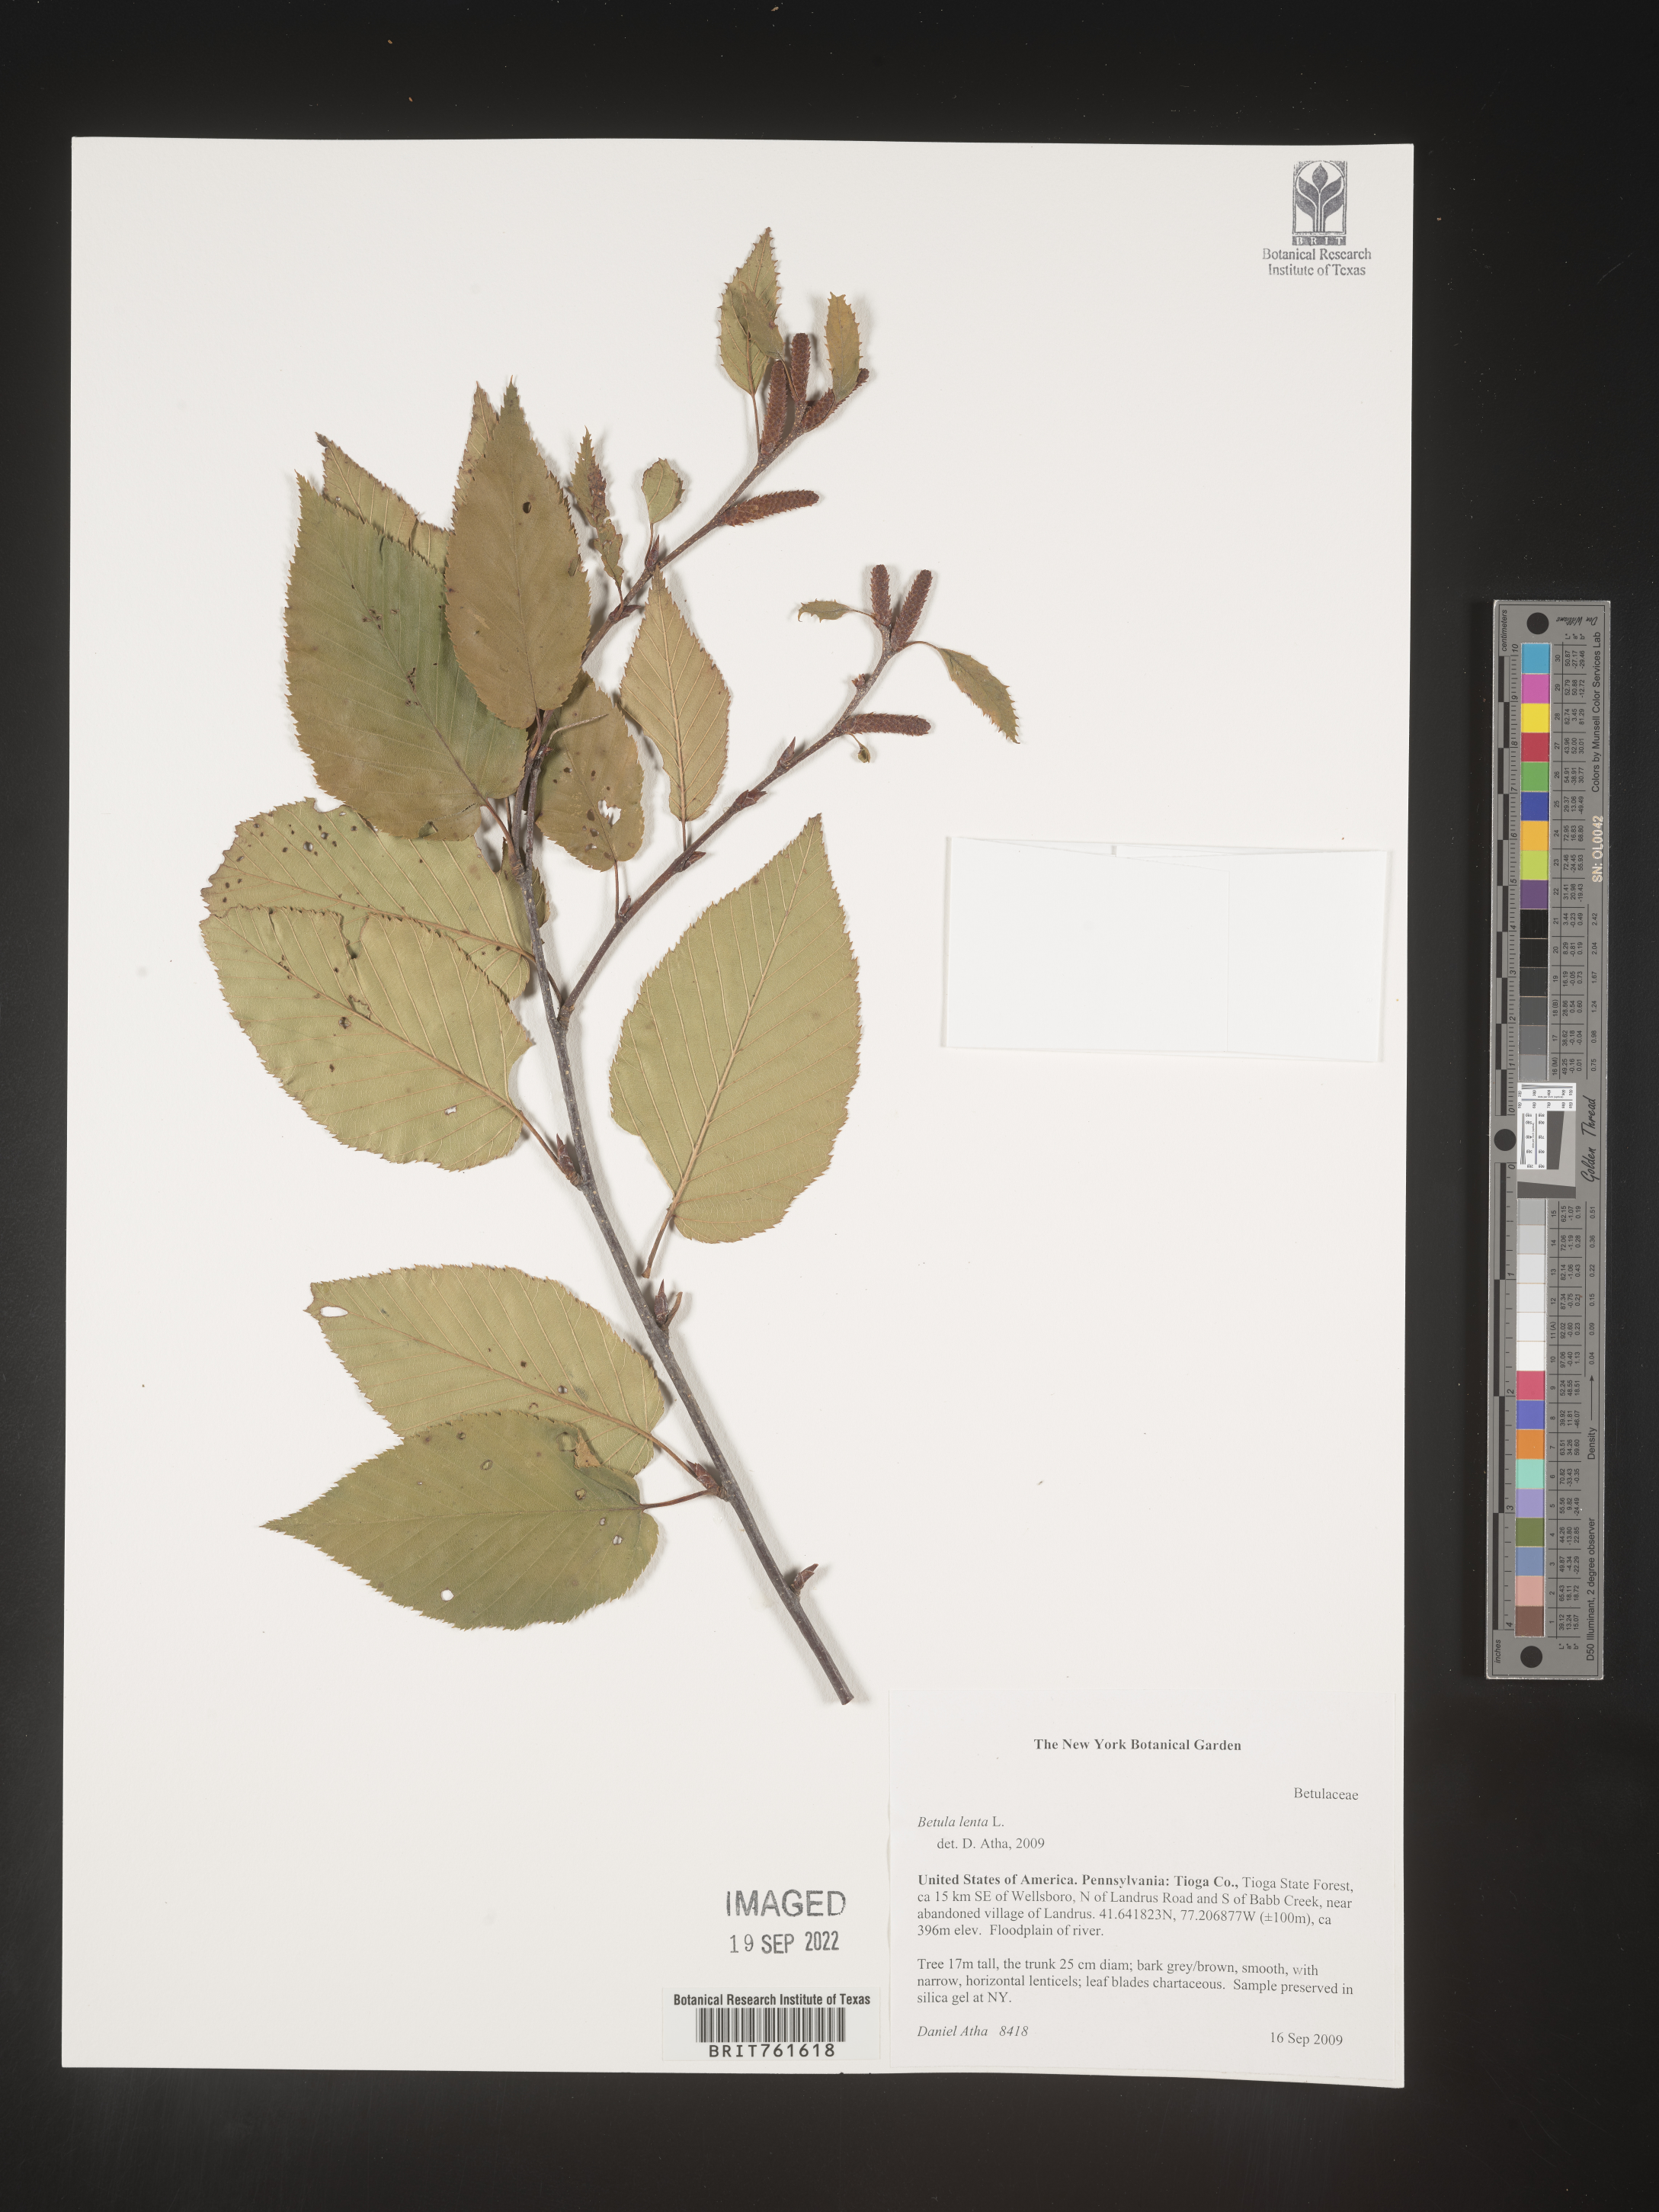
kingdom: Plantae
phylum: Tracheophyta
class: Magnoliopsida
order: Fagales
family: Betulaceae
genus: Betula
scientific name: Betula lenta
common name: Black birch
